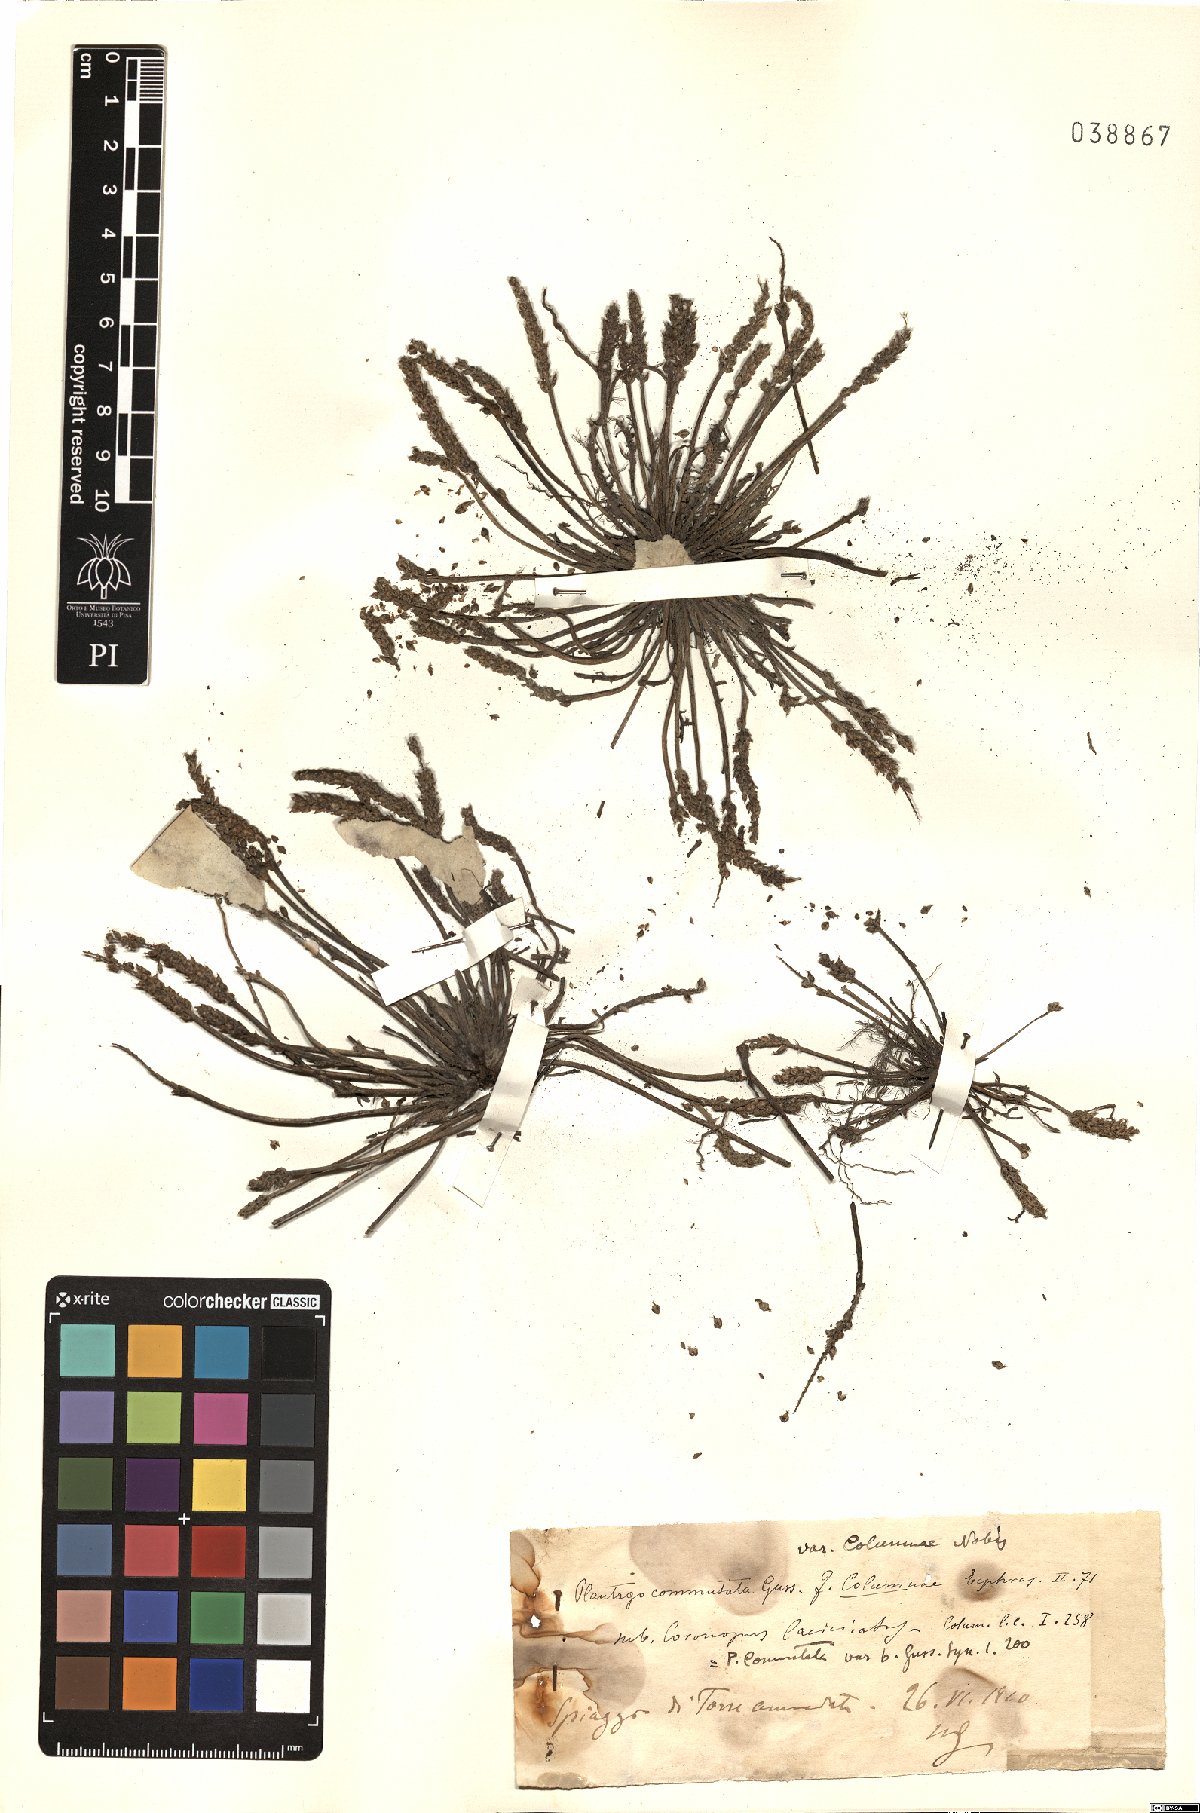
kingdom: Plantae
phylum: Tracheophyta
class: Magnoliopsida
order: Lamiales
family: Plantaginaceae
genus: Plantago
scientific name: Plantago weldenii
